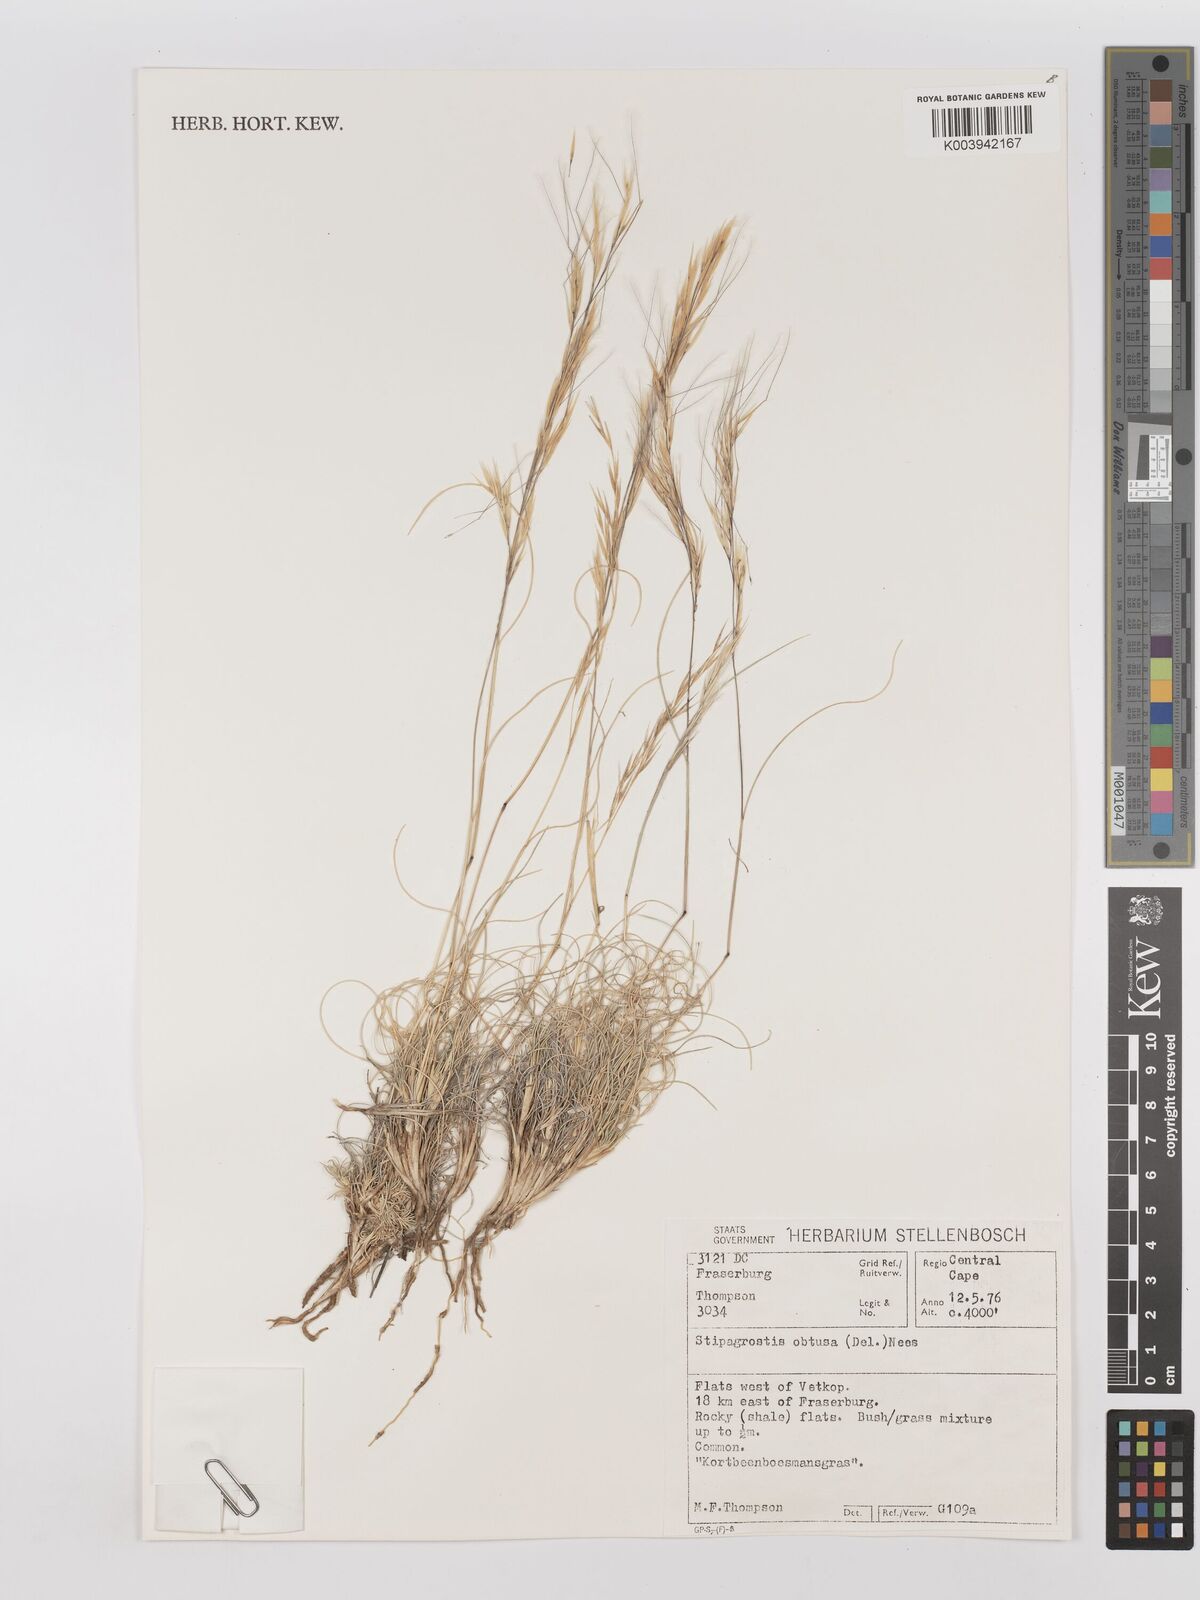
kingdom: Plantae
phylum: Tracheophyta
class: Liliopsida
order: Poales
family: Poaceae
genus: Stipagrostis
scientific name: Stipagrostis obtusa
